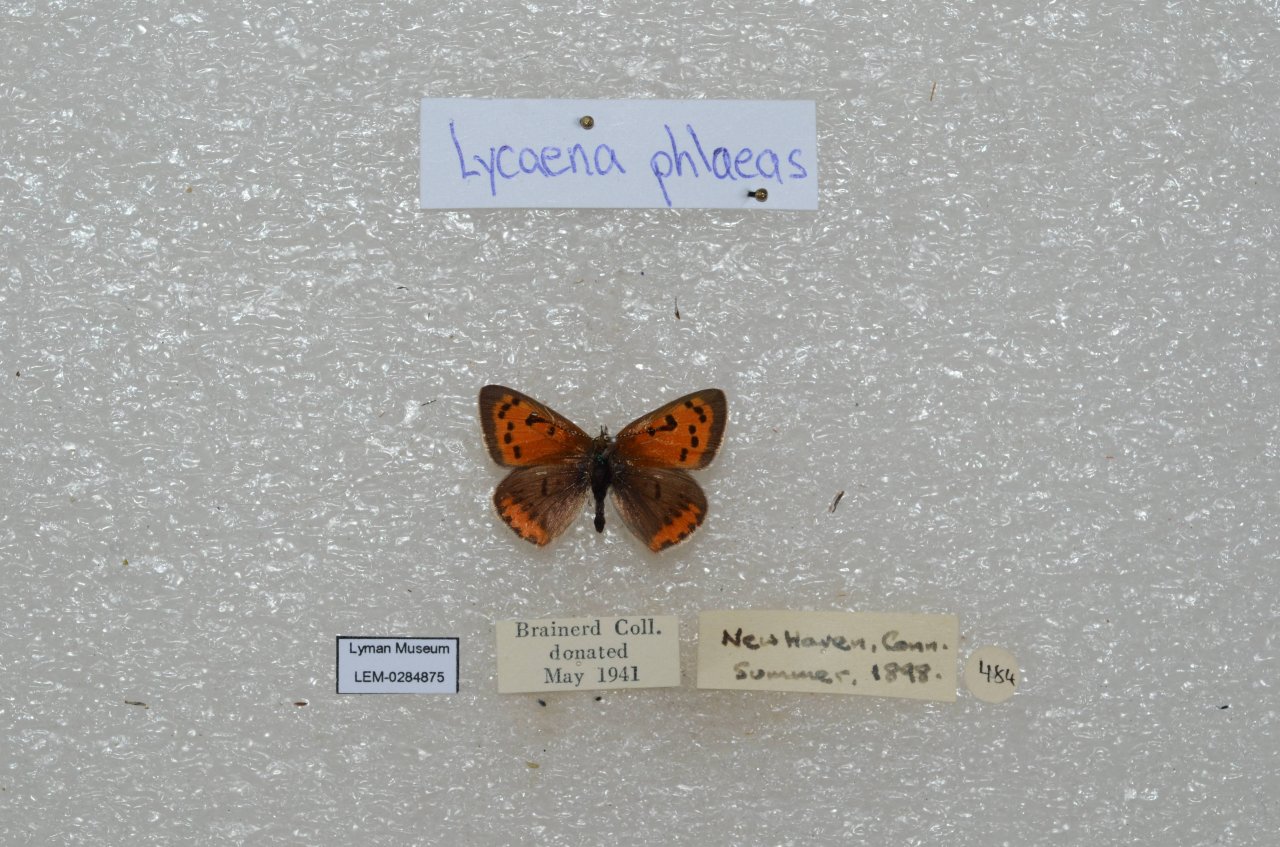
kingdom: Animalia
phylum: Arthropoda
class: Insecta
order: Lepidoptera
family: Lycaenidae
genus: Lycaena
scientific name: Lycaena phlaeas
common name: American Copper
